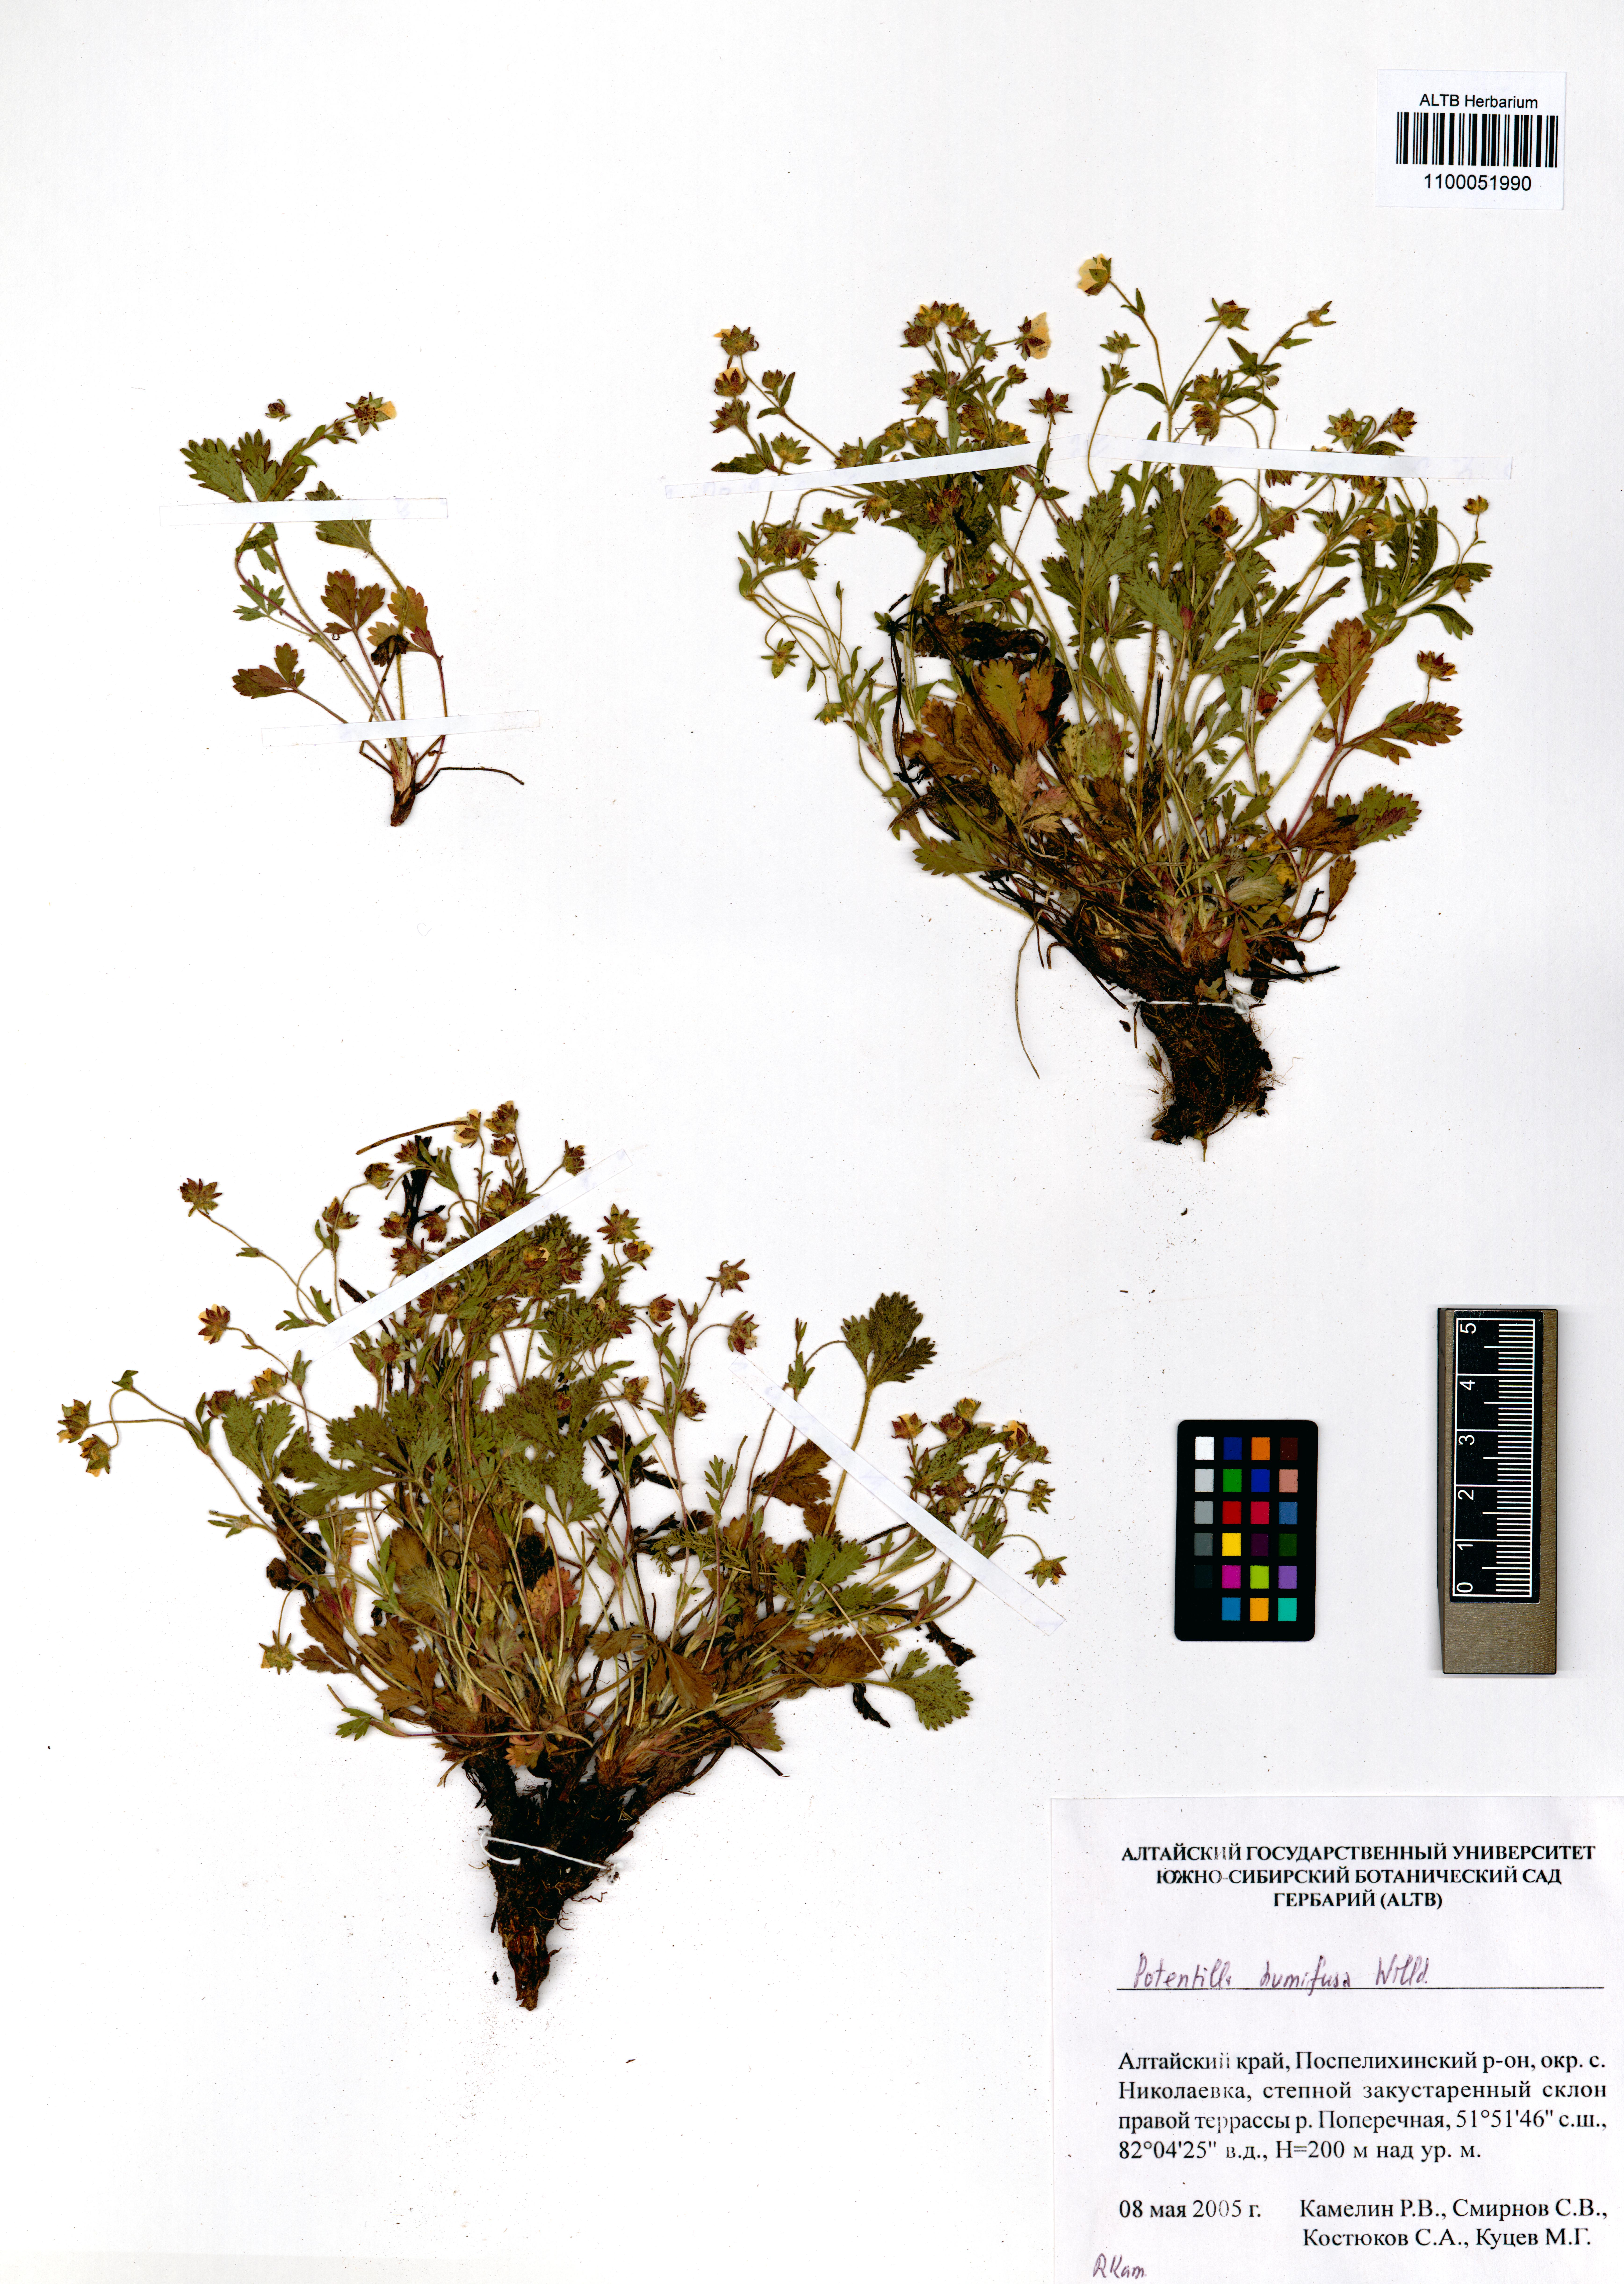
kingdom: Plantae
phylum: Tracheophyta
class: Magnoliopsida
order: Rosales
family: Rosaceae
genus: Potentilla
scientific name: Potentilla humifusa
